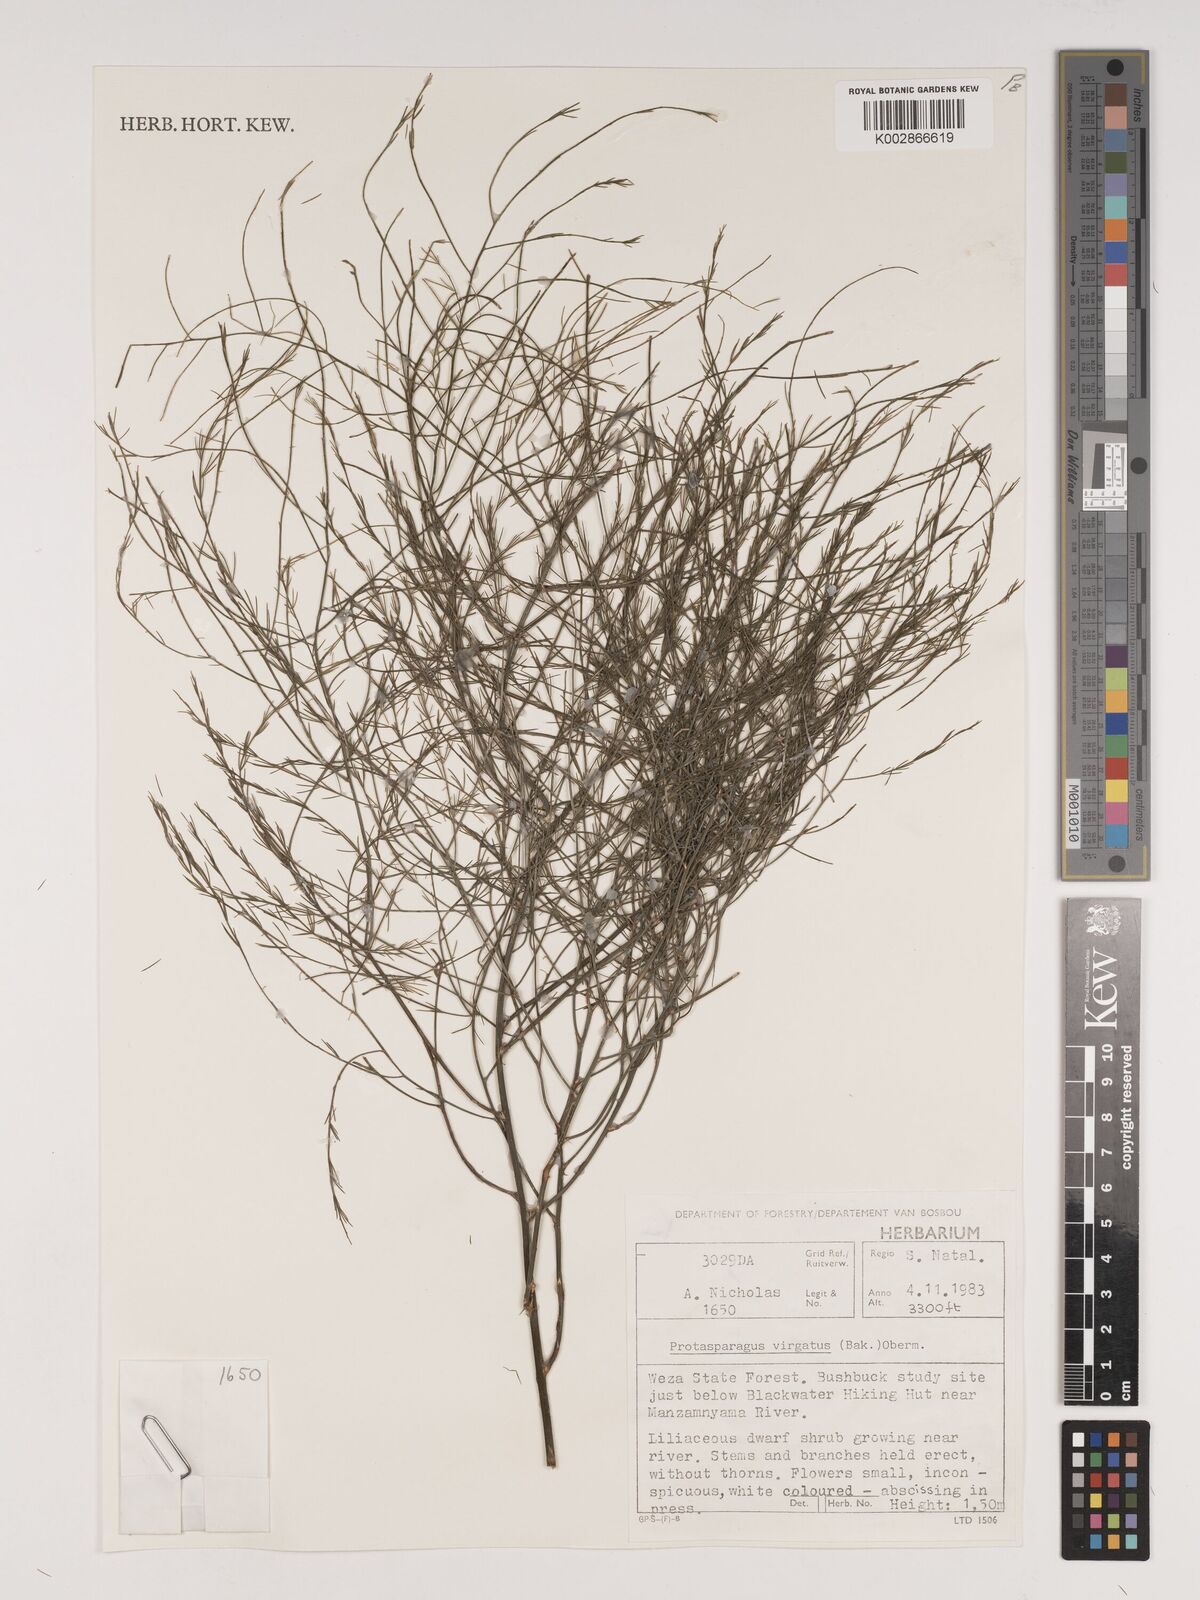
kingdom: Plantae
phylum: Tracheophyta
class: Liliopsida
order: Asparagales
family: Asparagaceae
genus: Asparagus
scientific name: Asparagus virgatus
